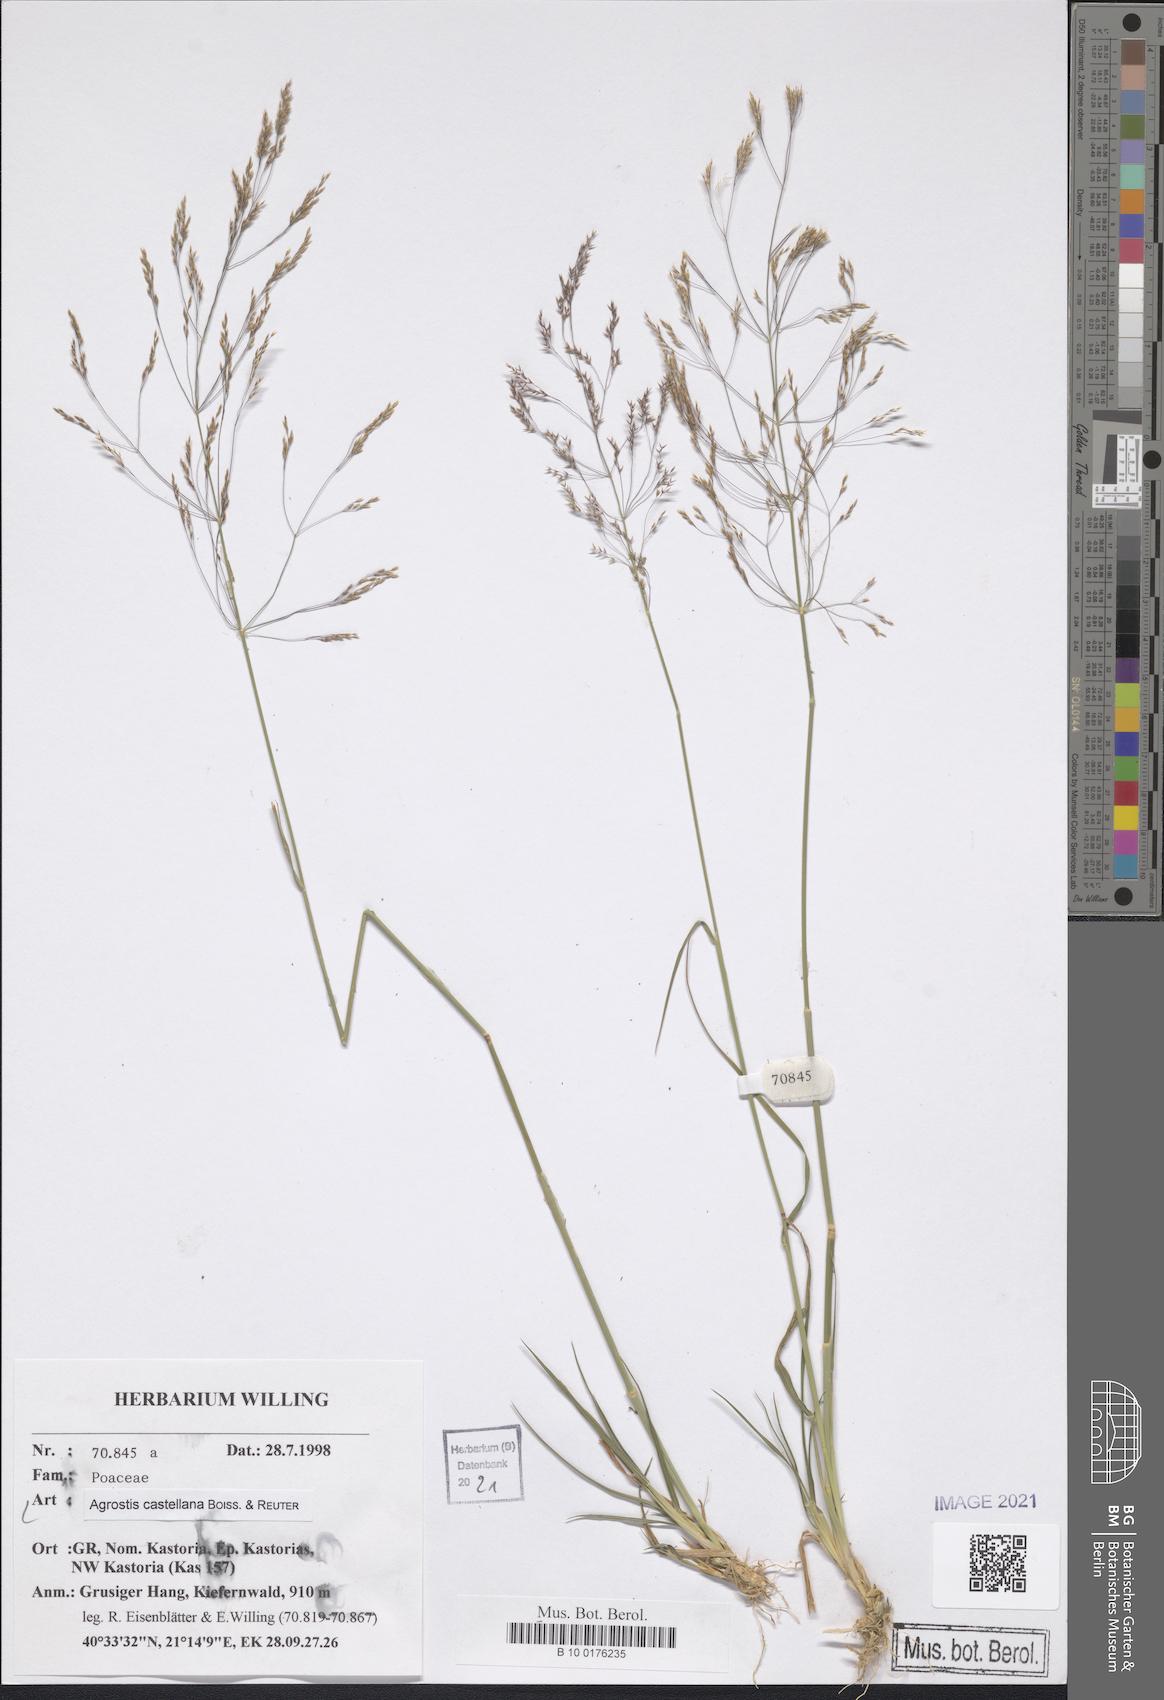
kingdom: Plantae
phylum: Tracheophyta
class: Liliopsida
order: Poales
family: Poaceae
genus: Agrostis
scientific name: Agrostis castellana
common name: Highland bent
